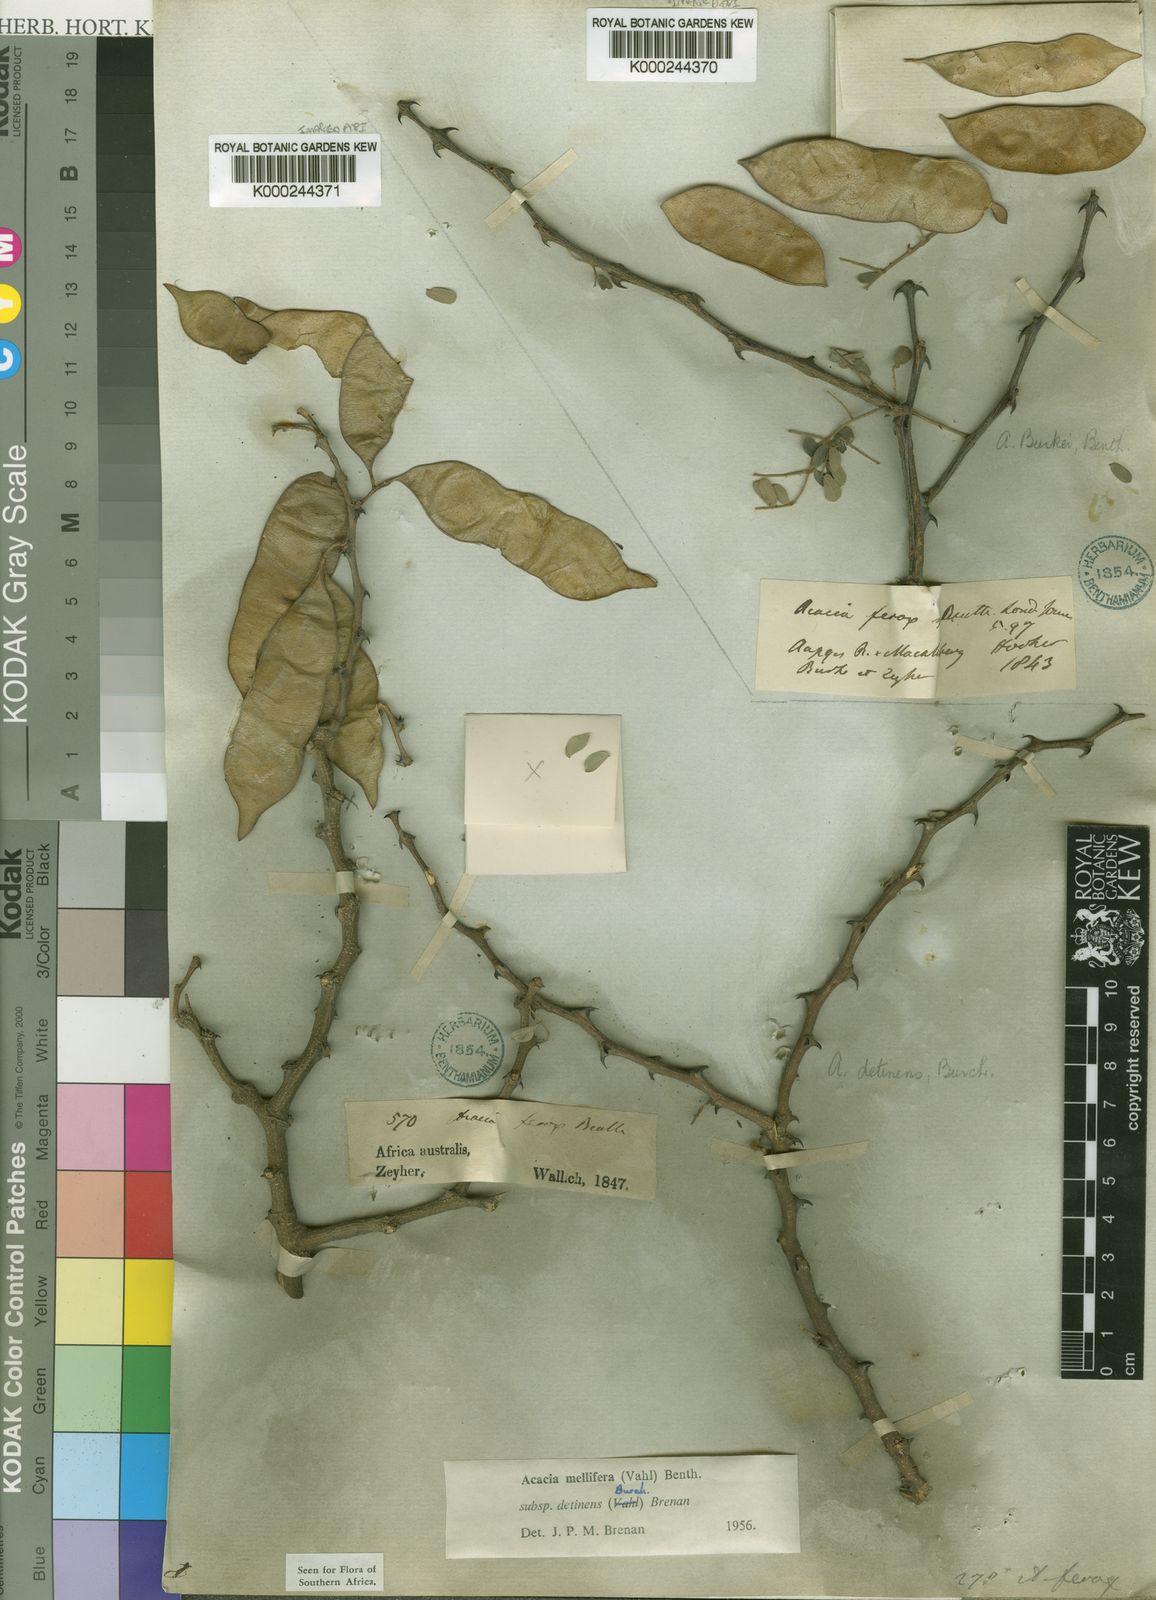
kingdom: Plantae
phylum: Tracheophyta
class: Magnoliopsida
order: Fabales
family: Fabaceae
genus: Senegalia
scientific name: Senegalia mellifera
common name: Hookthorn
